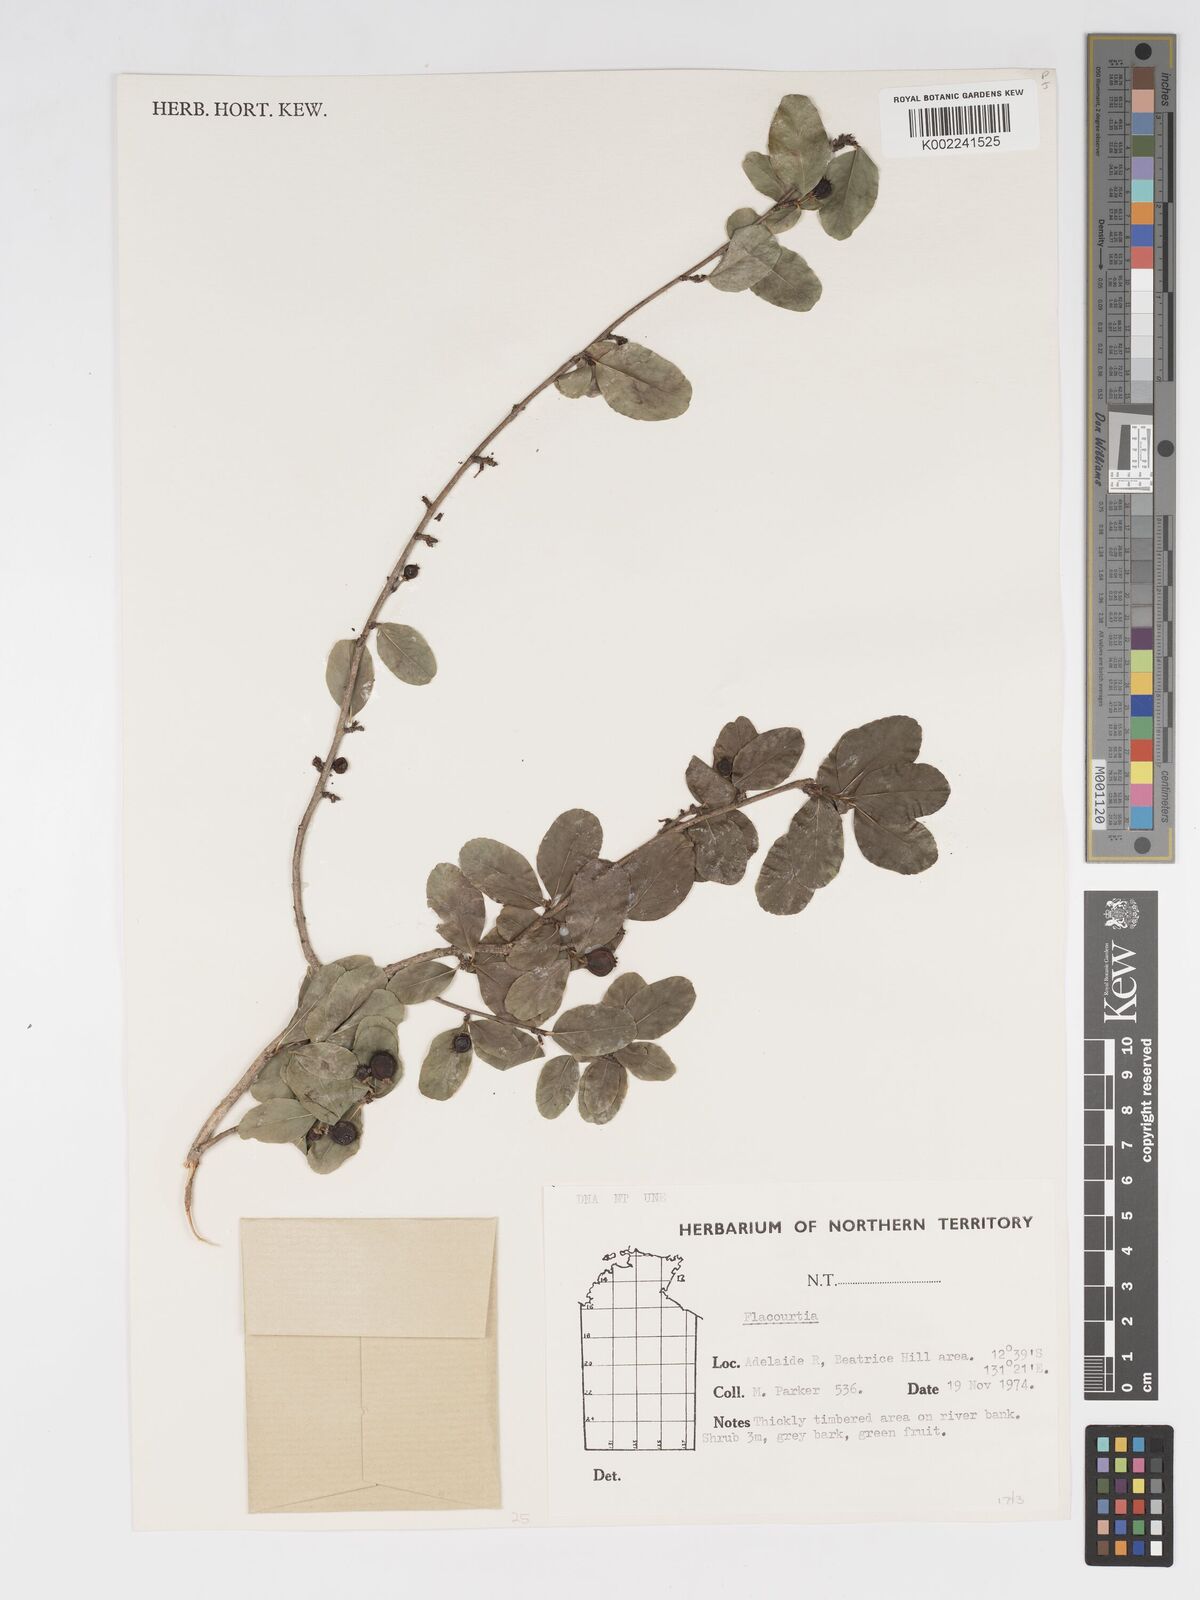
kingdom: Plantae
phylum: Tracheophyta
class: Magnoliopsida
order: Malpighiales
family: Salicaceae
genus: Flacourtia
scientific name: Flacourtia
